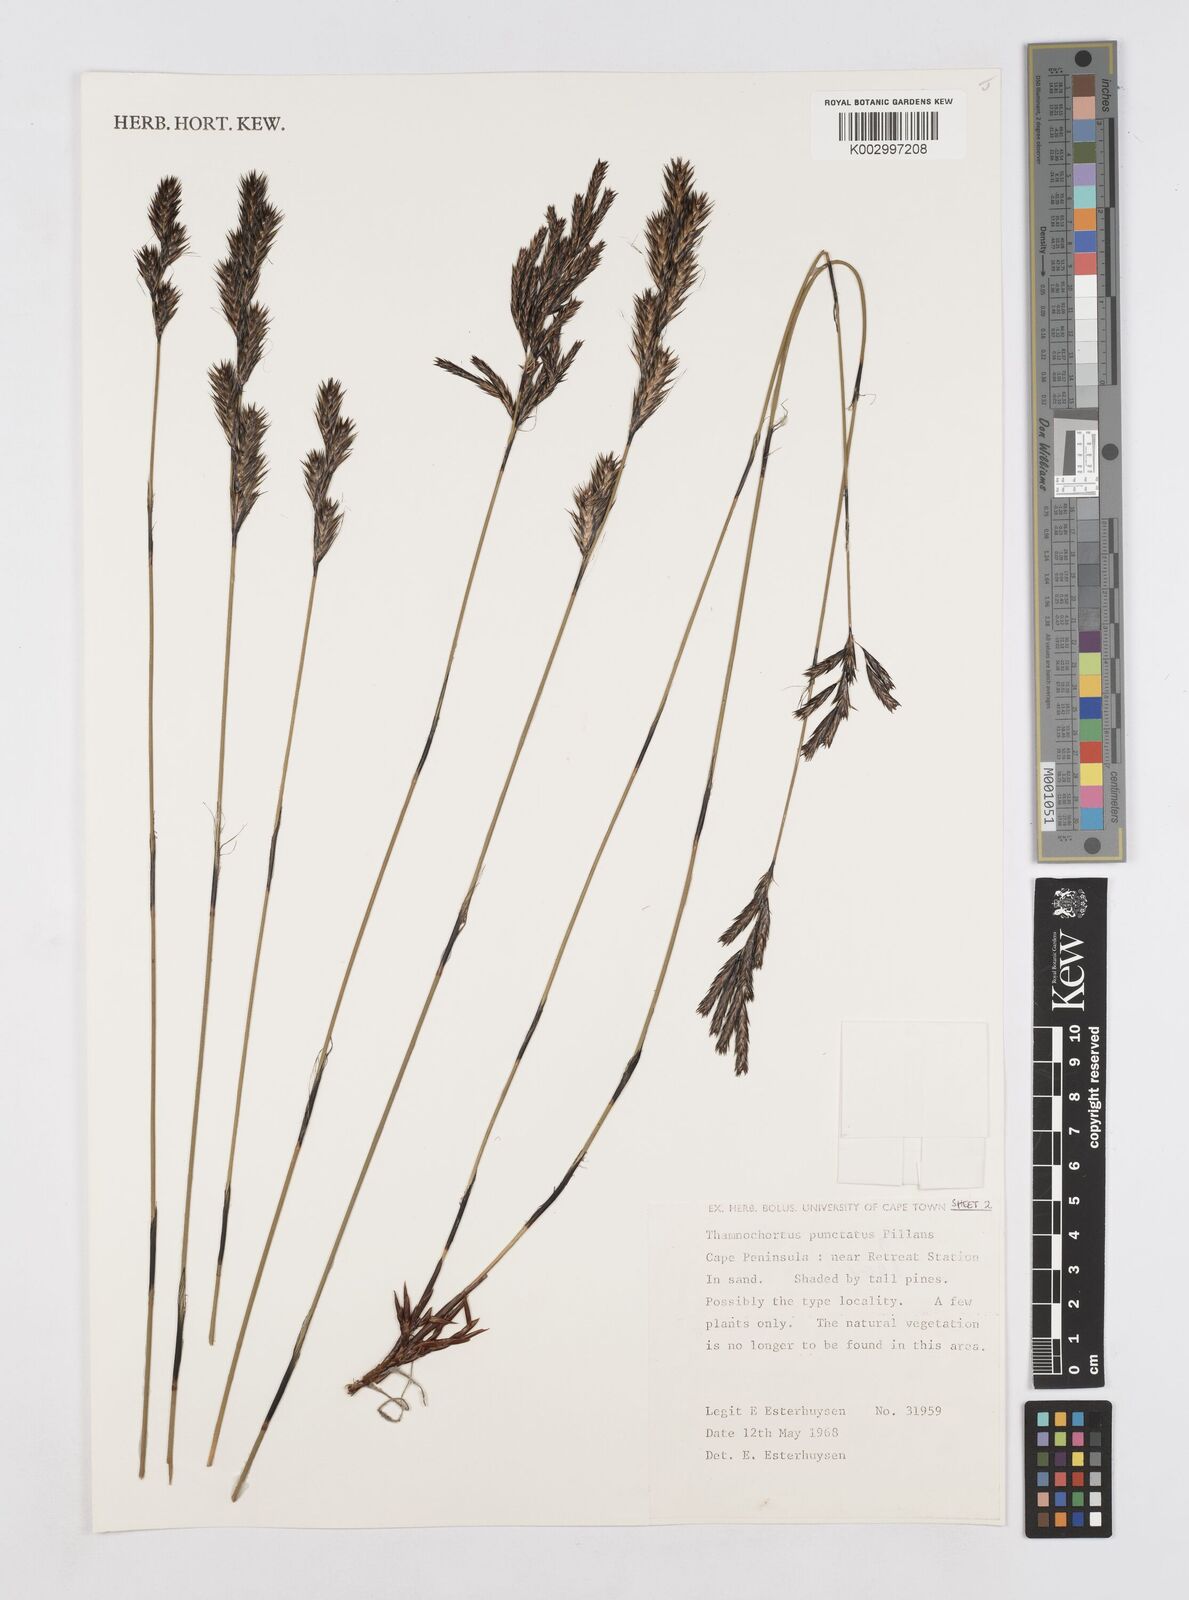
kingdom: Plantae
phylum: Tracheophyta
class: Liliopsida
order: Poales
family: Restionaceae
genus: Thamnochortus
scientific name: Thamnochortus punctatus
